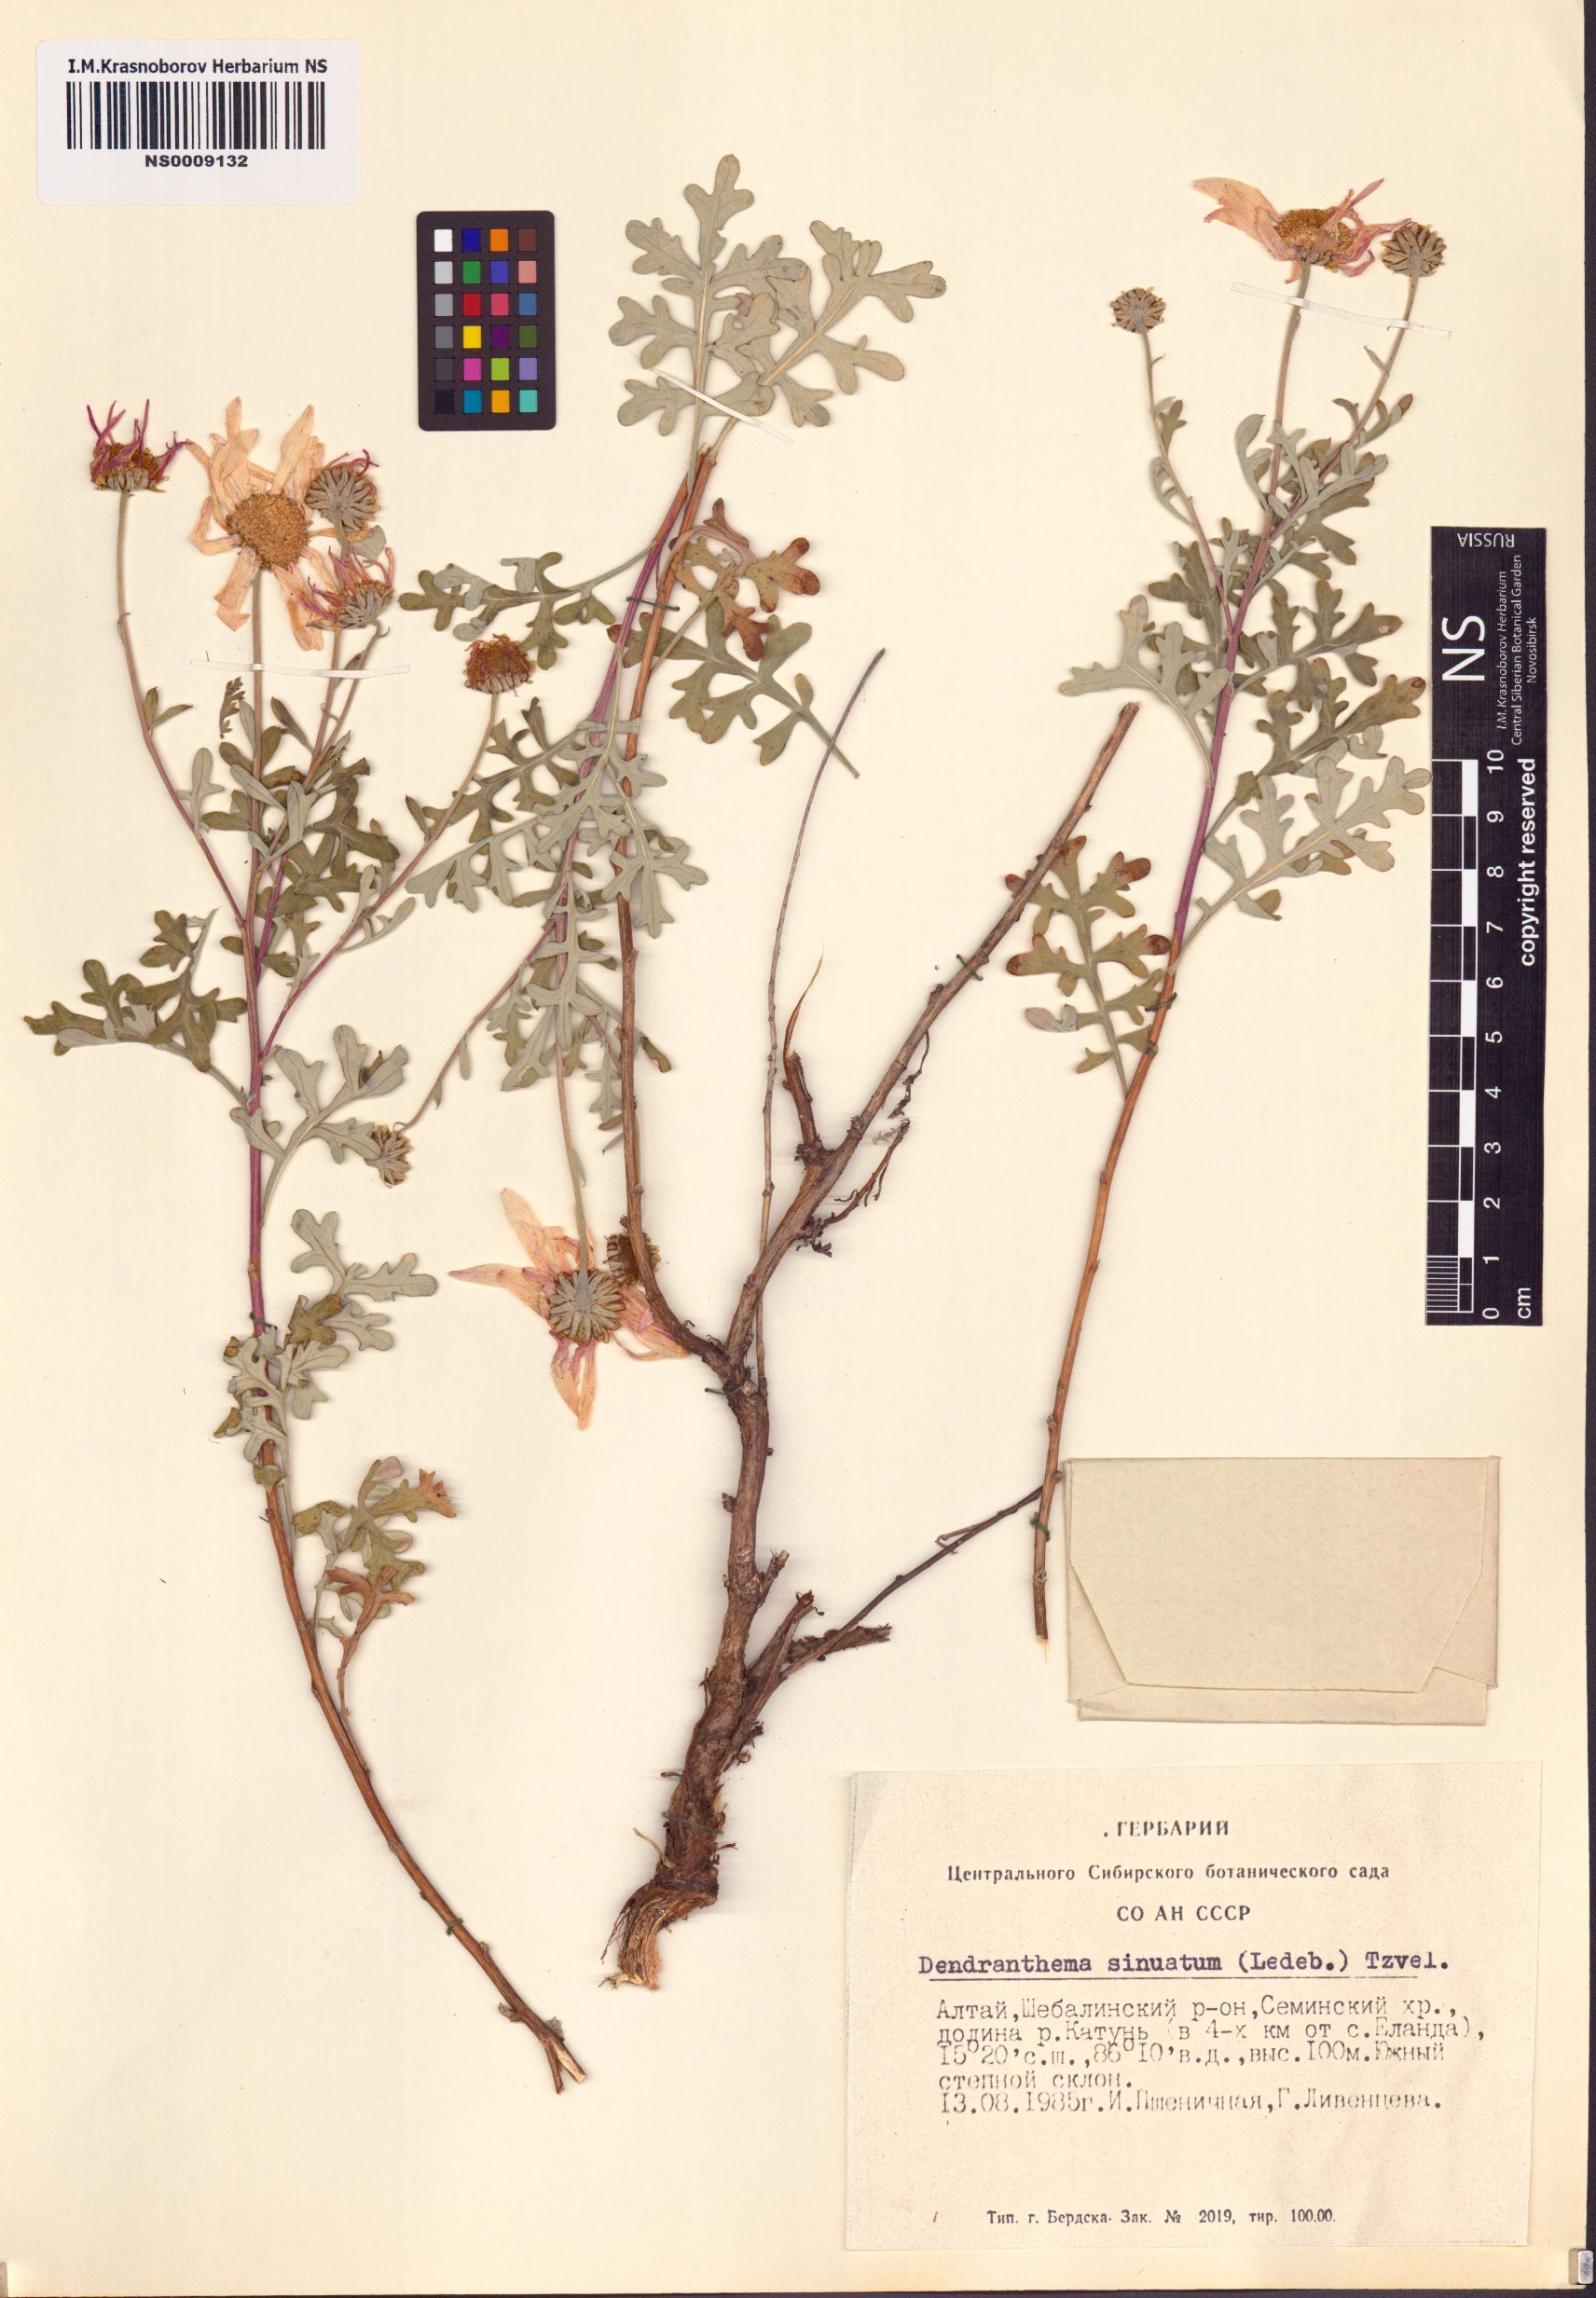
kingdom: Plantae
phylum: Tracheophyta
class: Magnoliopsida
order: Asterales
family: Asteraceae
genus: Chrysanthemum
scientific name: Chrysanthemum sinuatum
